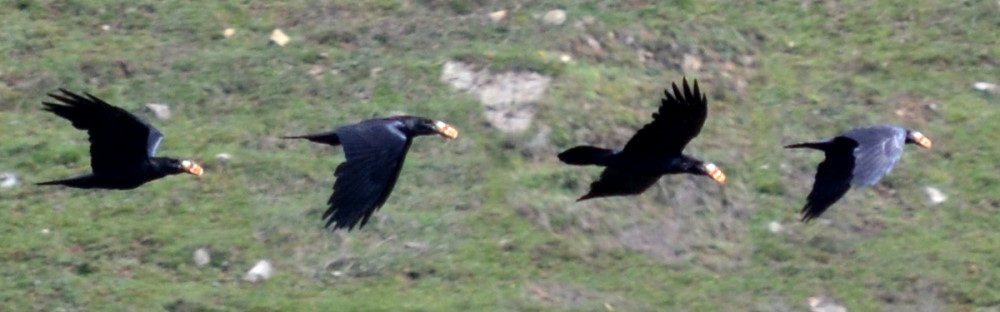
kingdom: Animalia
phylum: Chordata
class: Aves
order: Passeriformes
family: Corvidae
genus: Corvus
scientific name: Corvus frugilegus
